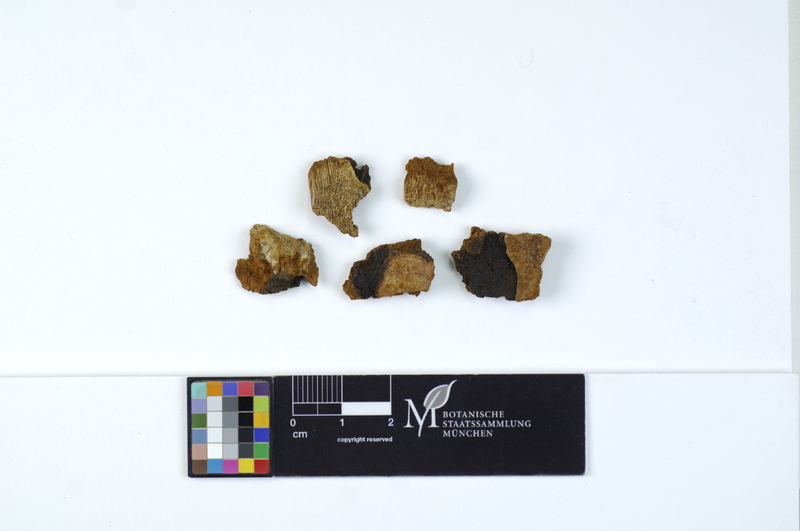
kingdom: Plantae
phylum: Tracheophyta
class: Pinopsida
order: Pinales
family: Pinaceae
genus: Abies
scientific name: Abies alba
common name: Silver fir
